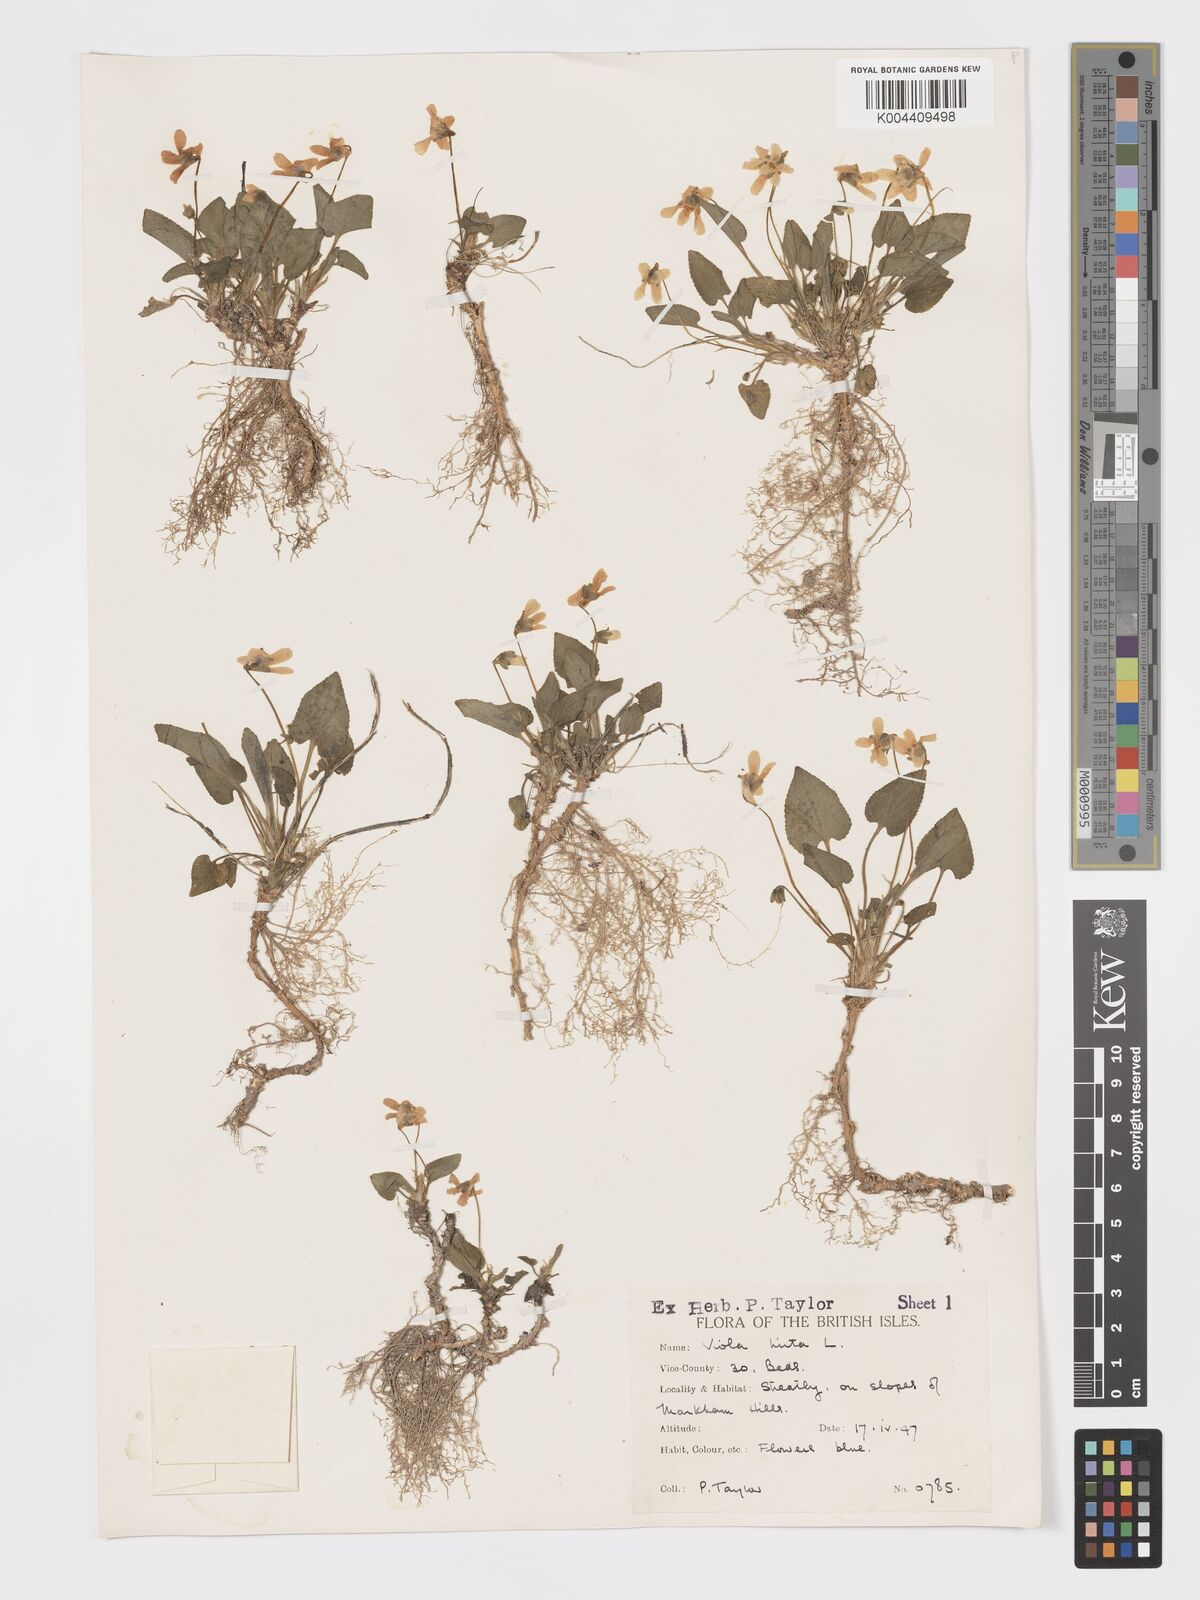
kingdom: Plantae
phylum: Tracheophyta
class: Magnoliopsida
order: Malpighiales
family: Violaceae
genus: Viola
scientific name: Viola
